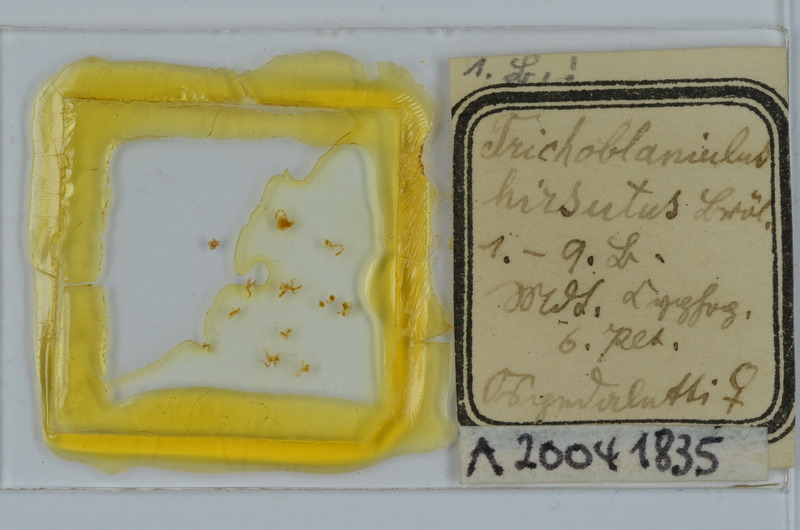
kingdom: Animalia
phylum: Arthropoda
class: Diplopoda
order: Julida
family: Trichoblaniulidae
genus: Trichoblaniulus
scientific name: Trichoblaniulus hirsutus
